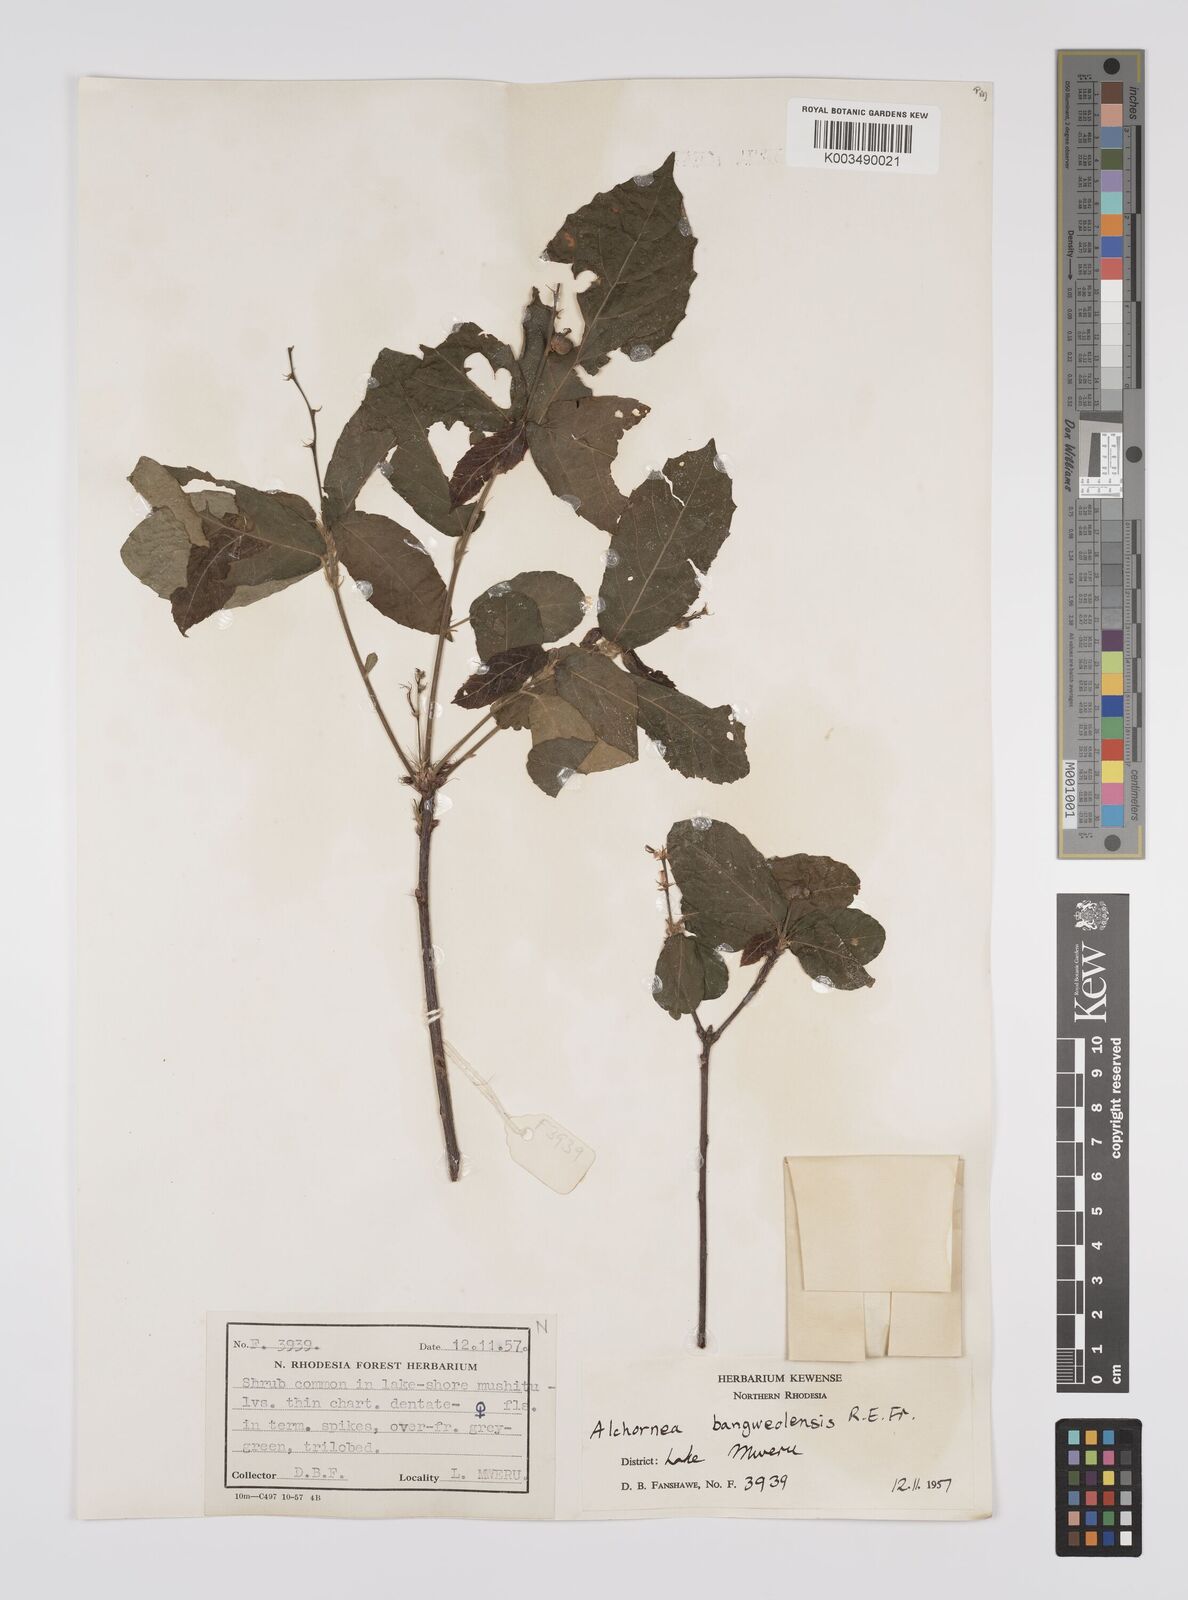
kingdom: Plantae
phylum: Tracheophyta
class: Magnoliopsida
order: Malpighiales
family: Euphorbiaceae
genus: Alchornea
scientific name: Alchornea yambuyaensis
